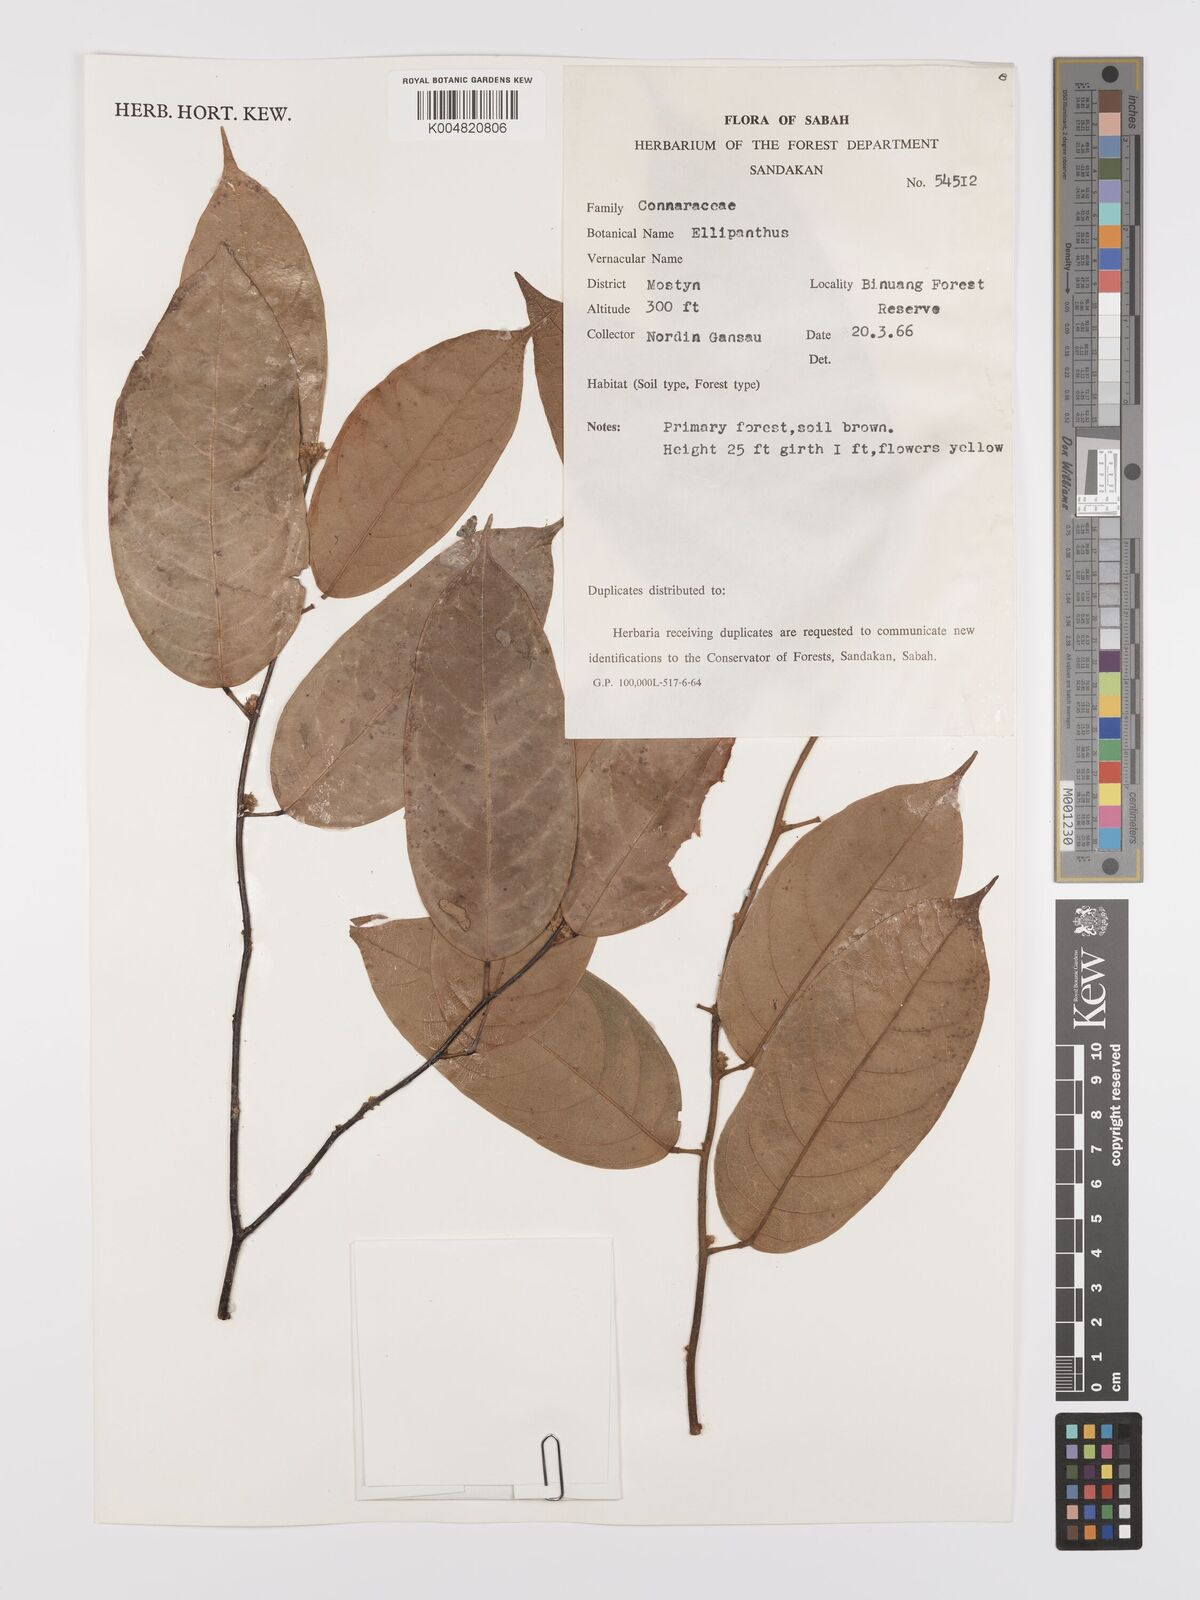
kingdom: Plantae
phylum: Tracheophyta
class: Magnoliopsida
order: Oxalidales
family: Connaraceae
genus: Ellipanthus
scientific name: Ellipanthus
